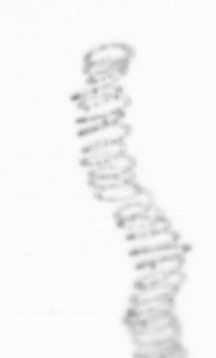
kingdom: Chromista
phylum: Ochrophyta
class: Bacillariophyceae
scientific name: Bacillariophyceae
